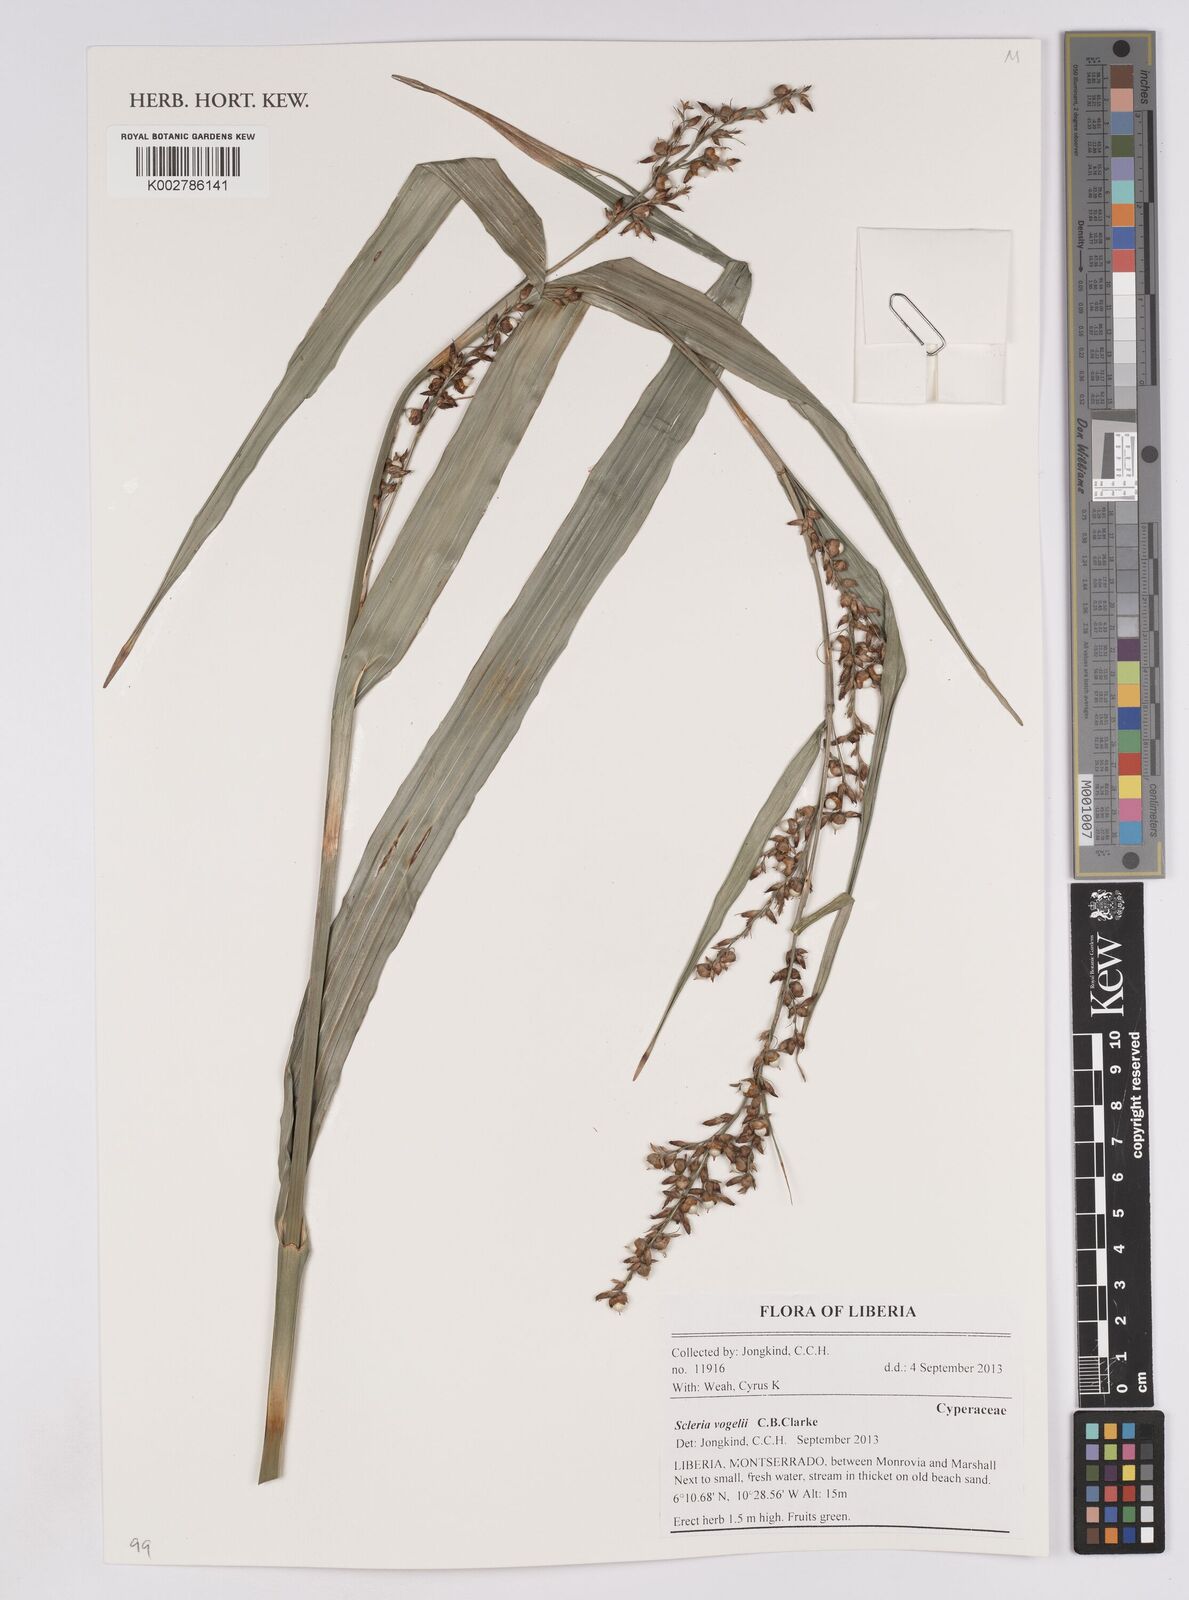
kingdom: Plantae
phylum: Tracheophyta
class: Liliopsida
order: Poales
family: Cyperaceae
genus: Scleria
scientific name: Scleria vogelii
